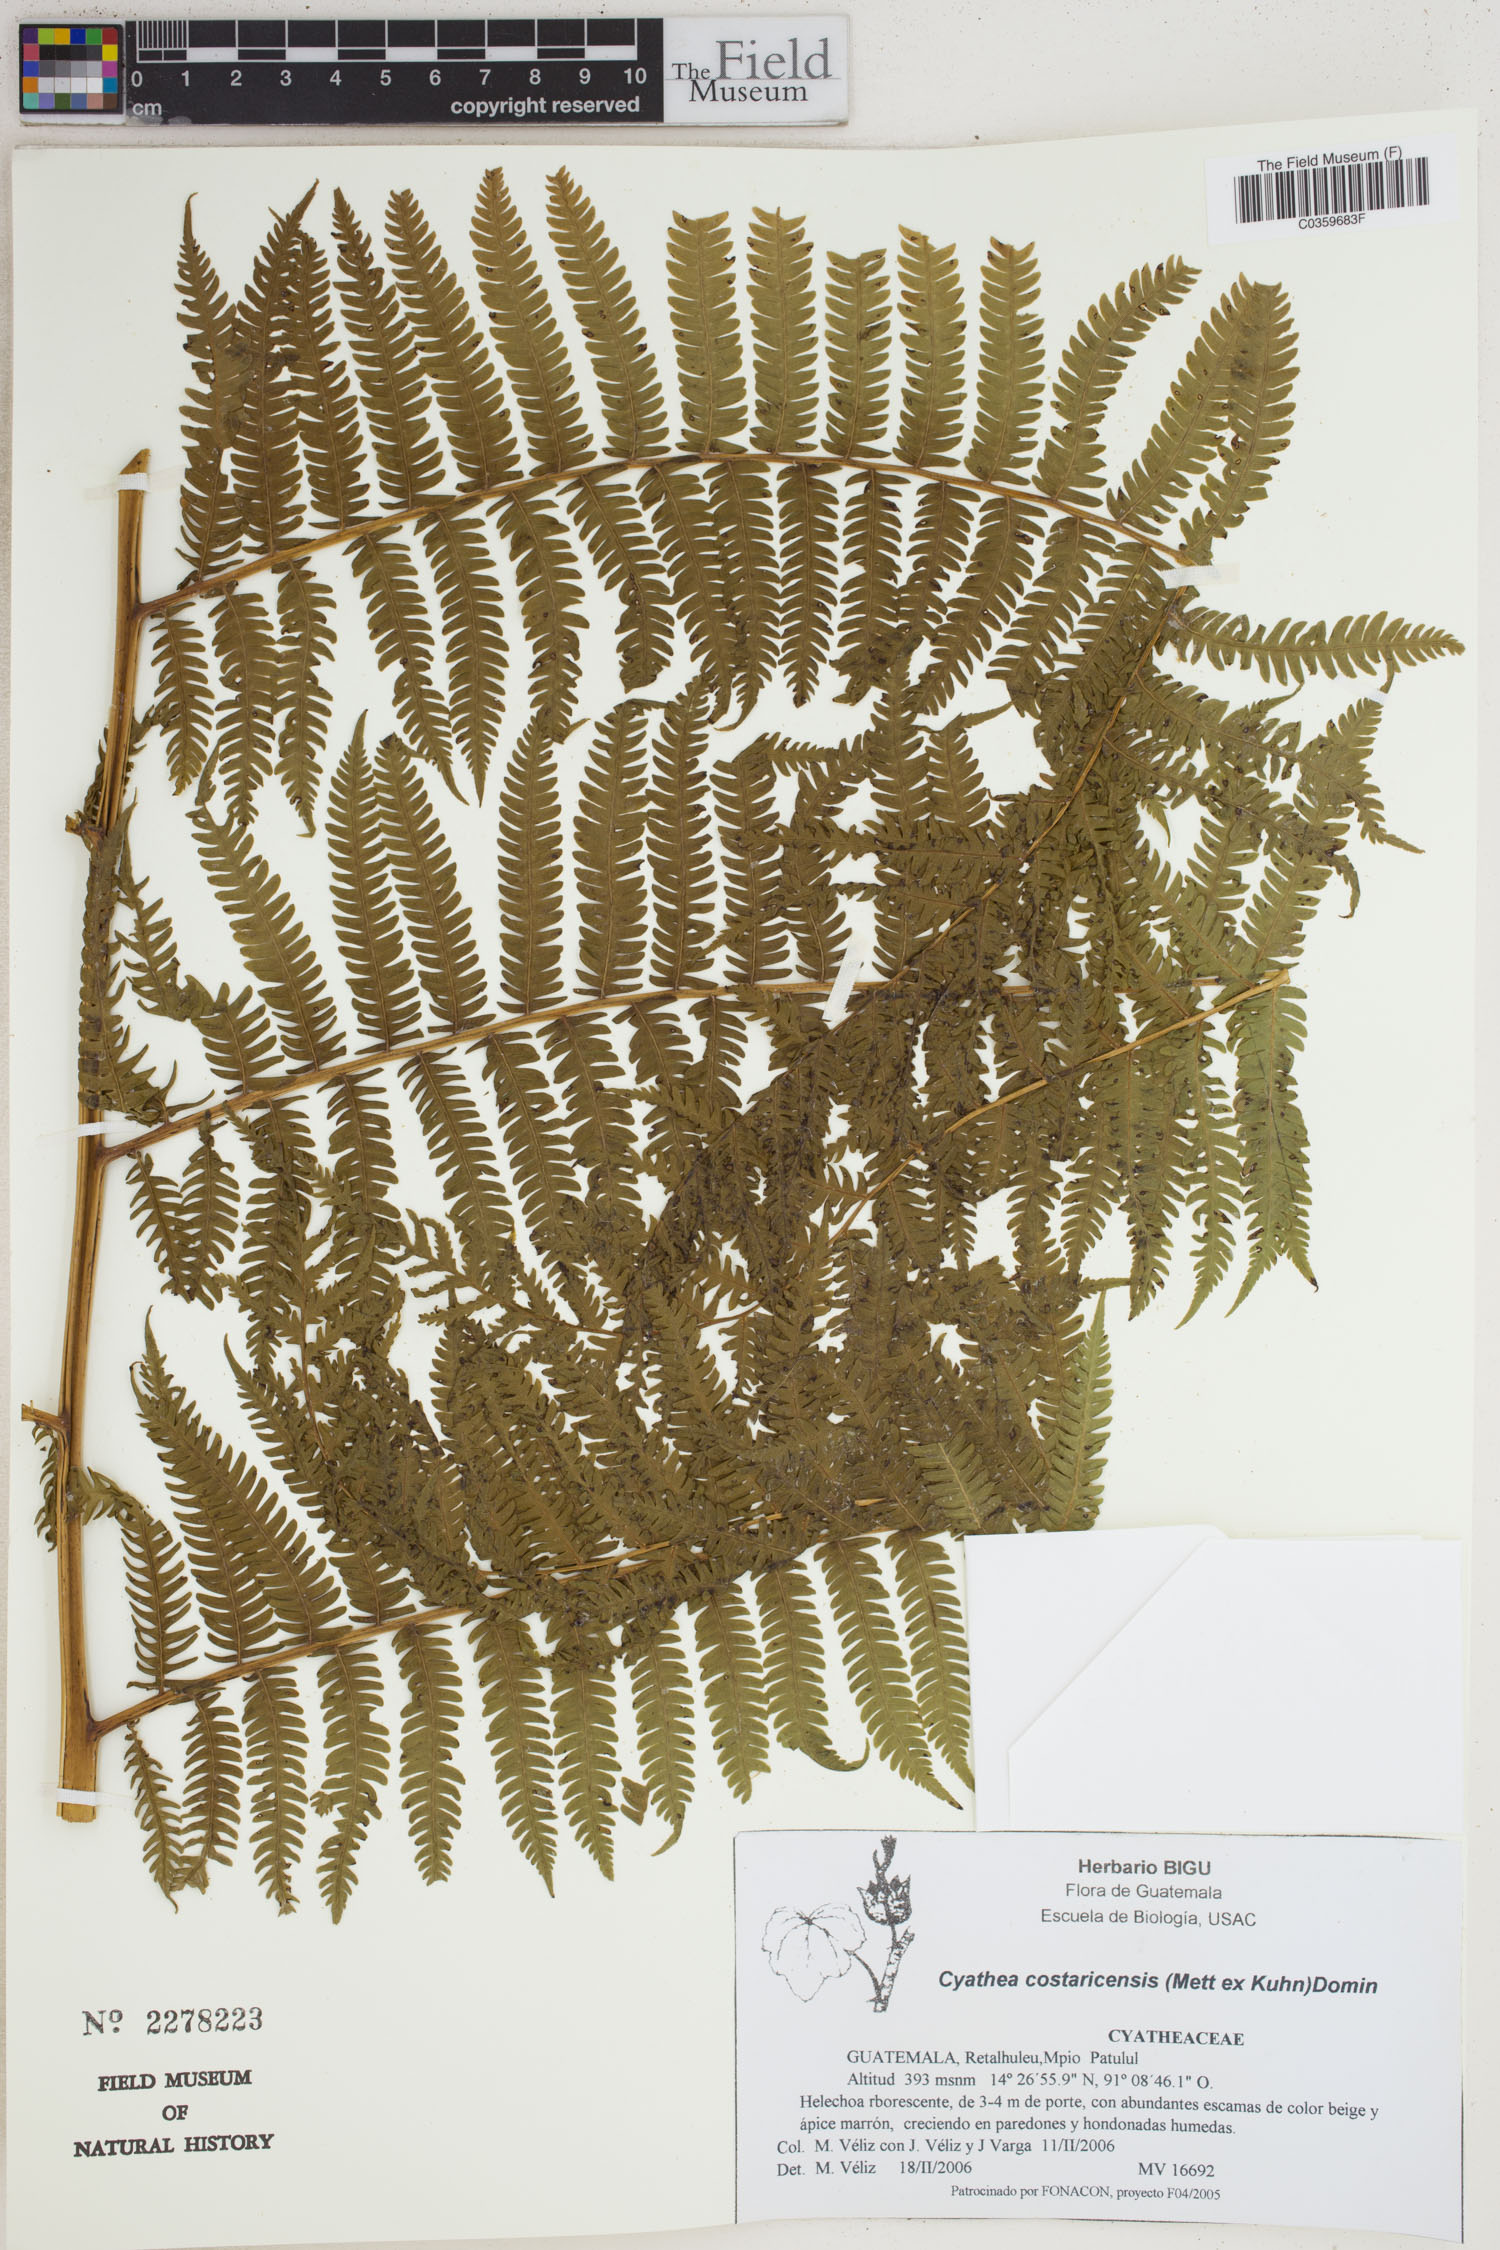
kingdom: Plantae
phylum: Tracheophyta
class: Polypodiopsida
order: Cyatheales
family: Cyatheaceae
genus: Cyathea
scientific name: Cyathea costaricensis
